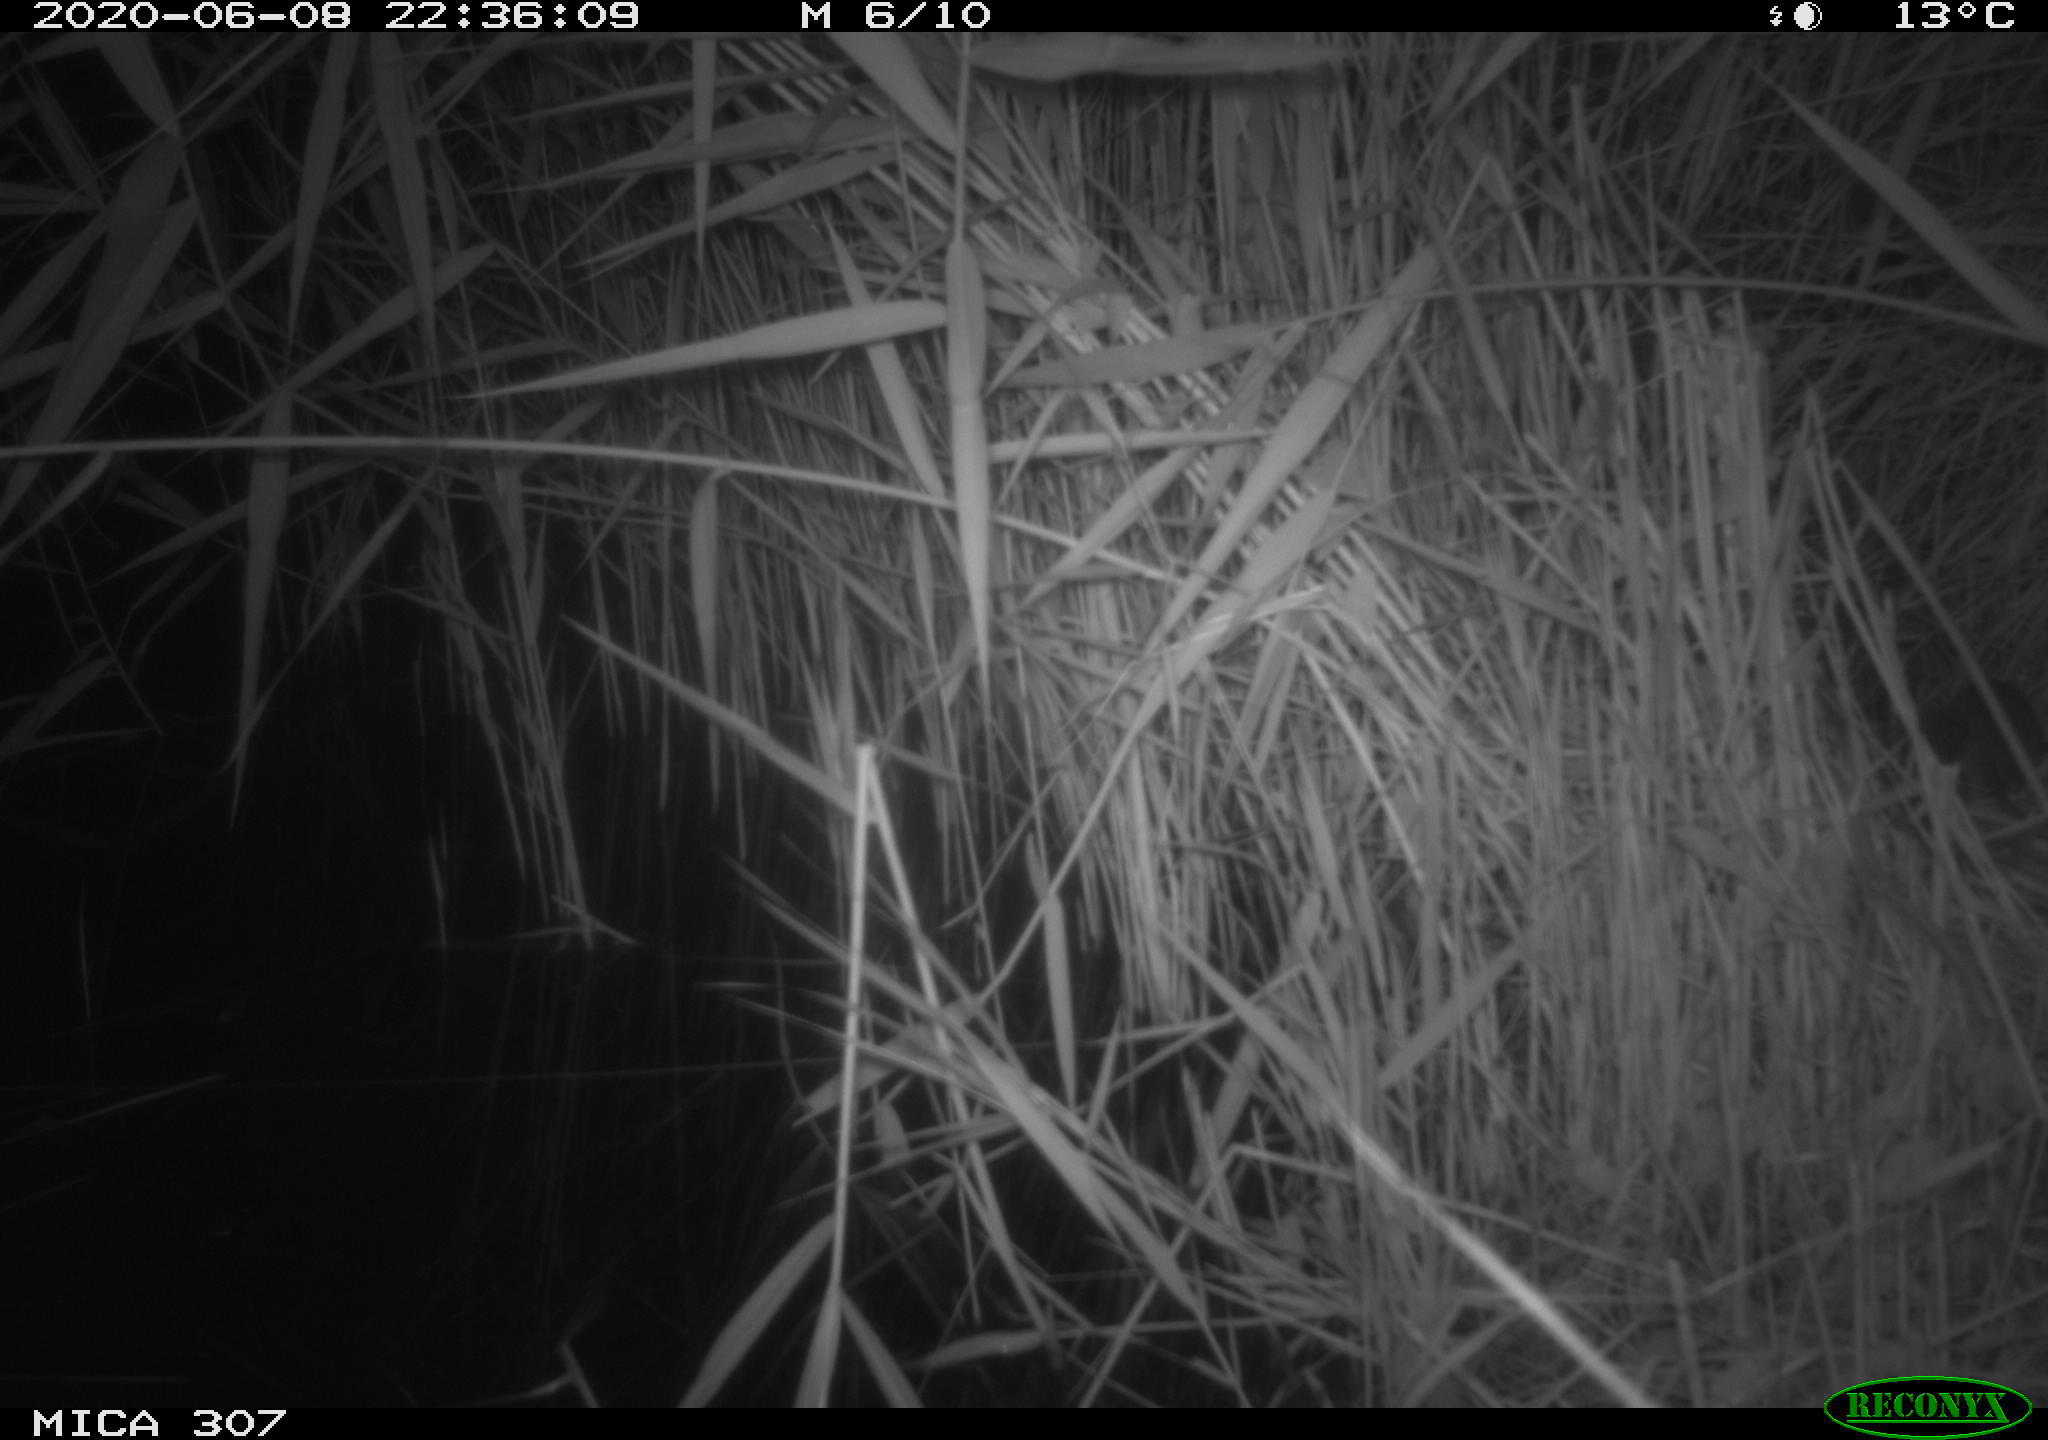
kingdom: Animalia
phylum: Chordata
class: Mammalia
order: Rodentia
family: Muridae
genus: Rattus
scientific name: Rattus norvegicus
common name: Brown rat
